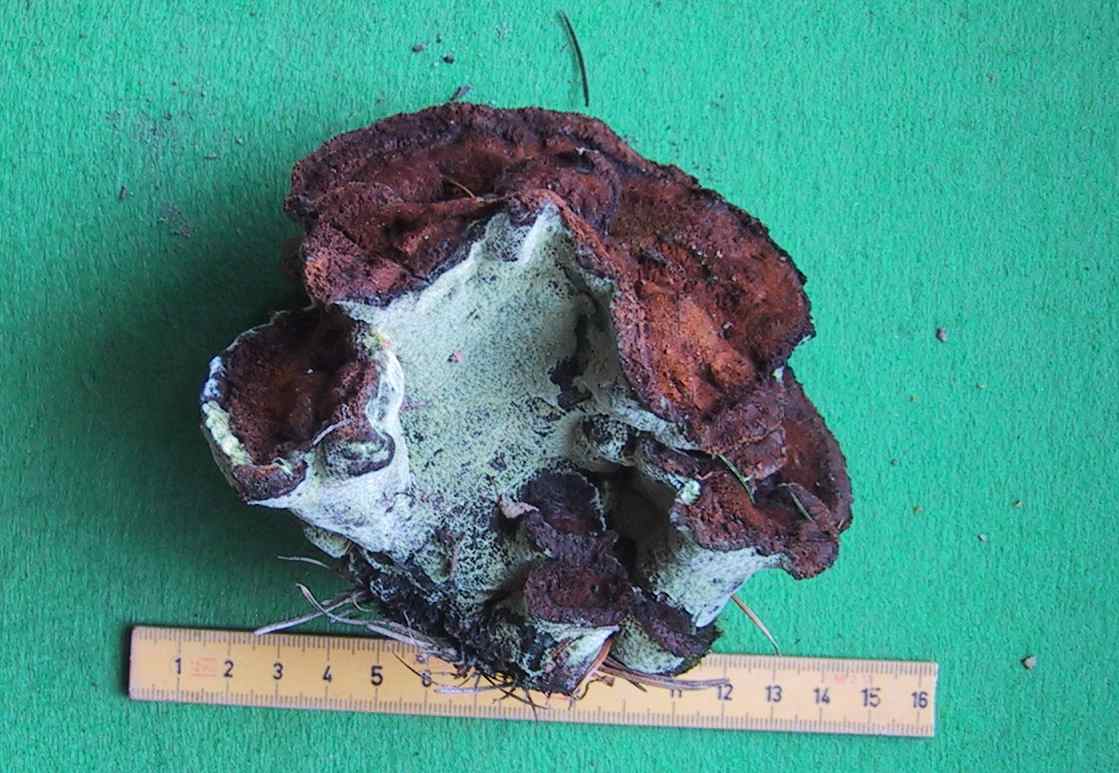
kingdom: Fungi
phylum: Basidiomycota
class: Agaricomycetes
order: Polyporales
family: Laetiporaceae
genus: Phaeolus
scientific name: Phaeolus schweinitzii
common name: brunporesvamp
